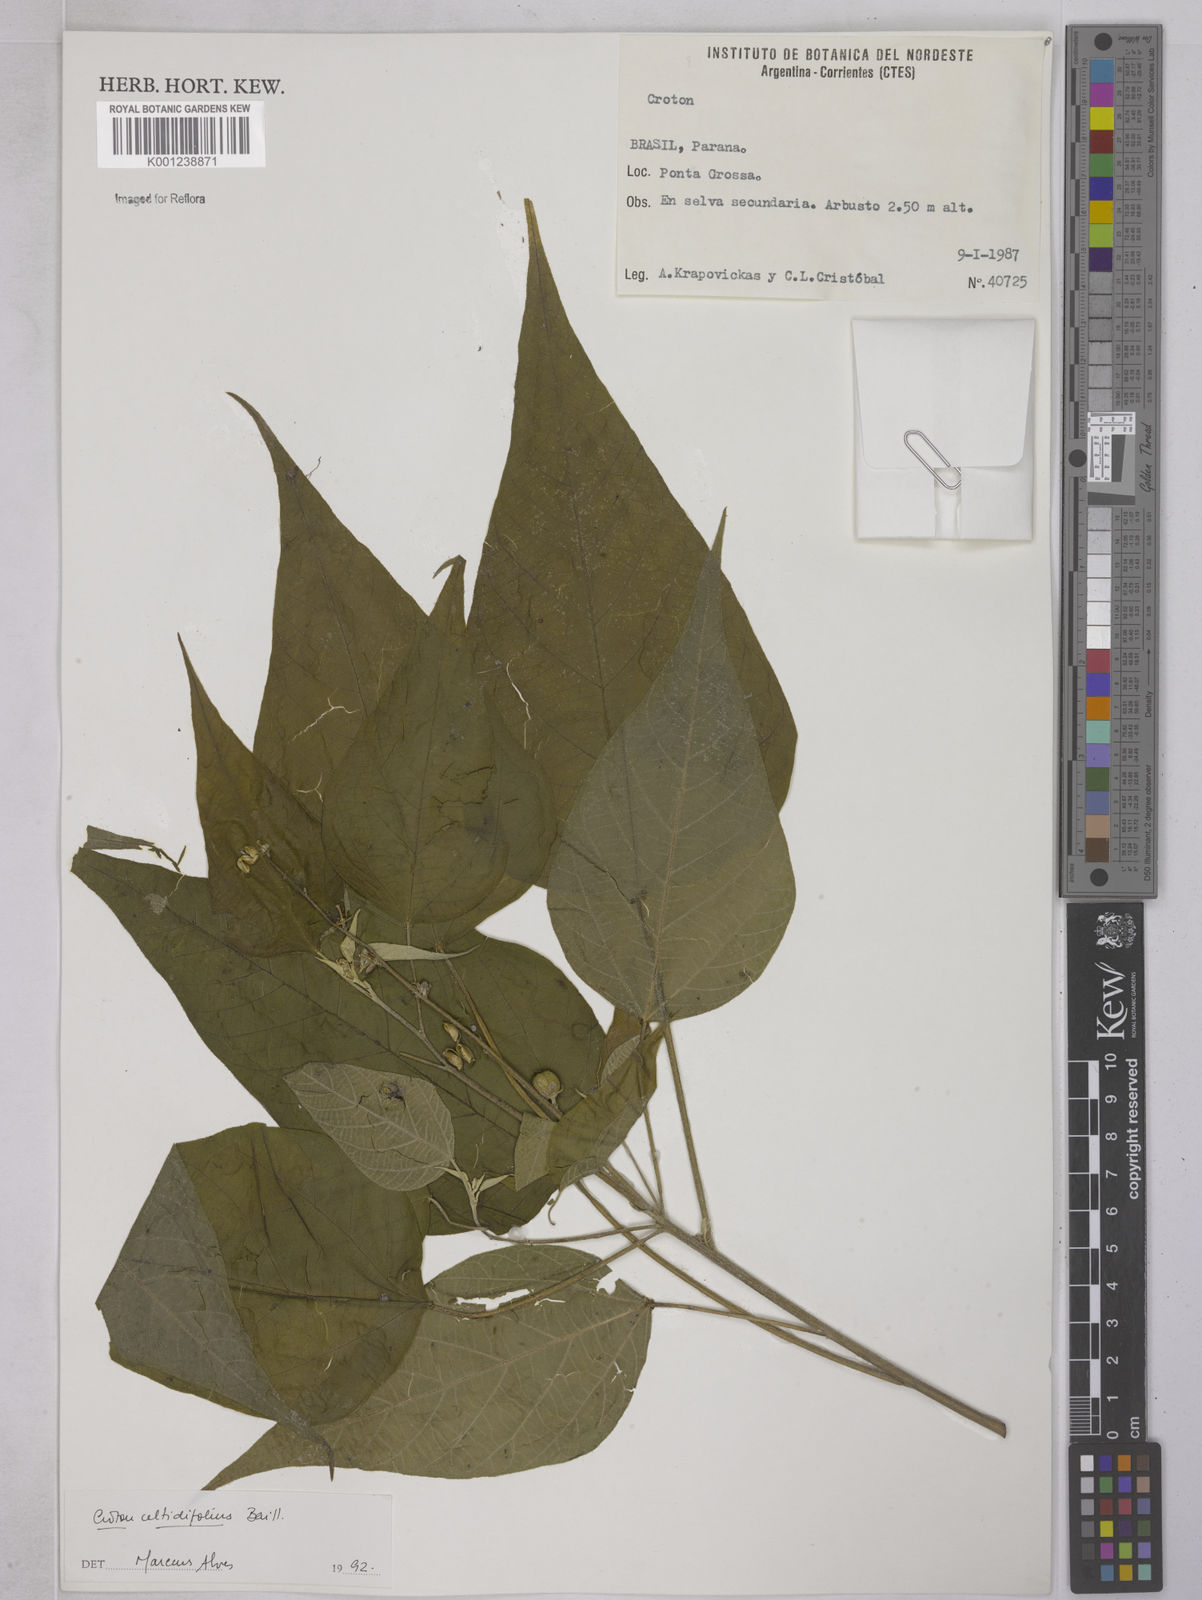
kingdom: Plantae
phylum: Tracheophyta
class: Magnoliopsida
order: Malpighiales
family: Euphorbiaceae
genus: Croton
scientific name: Croton celtidifolius
